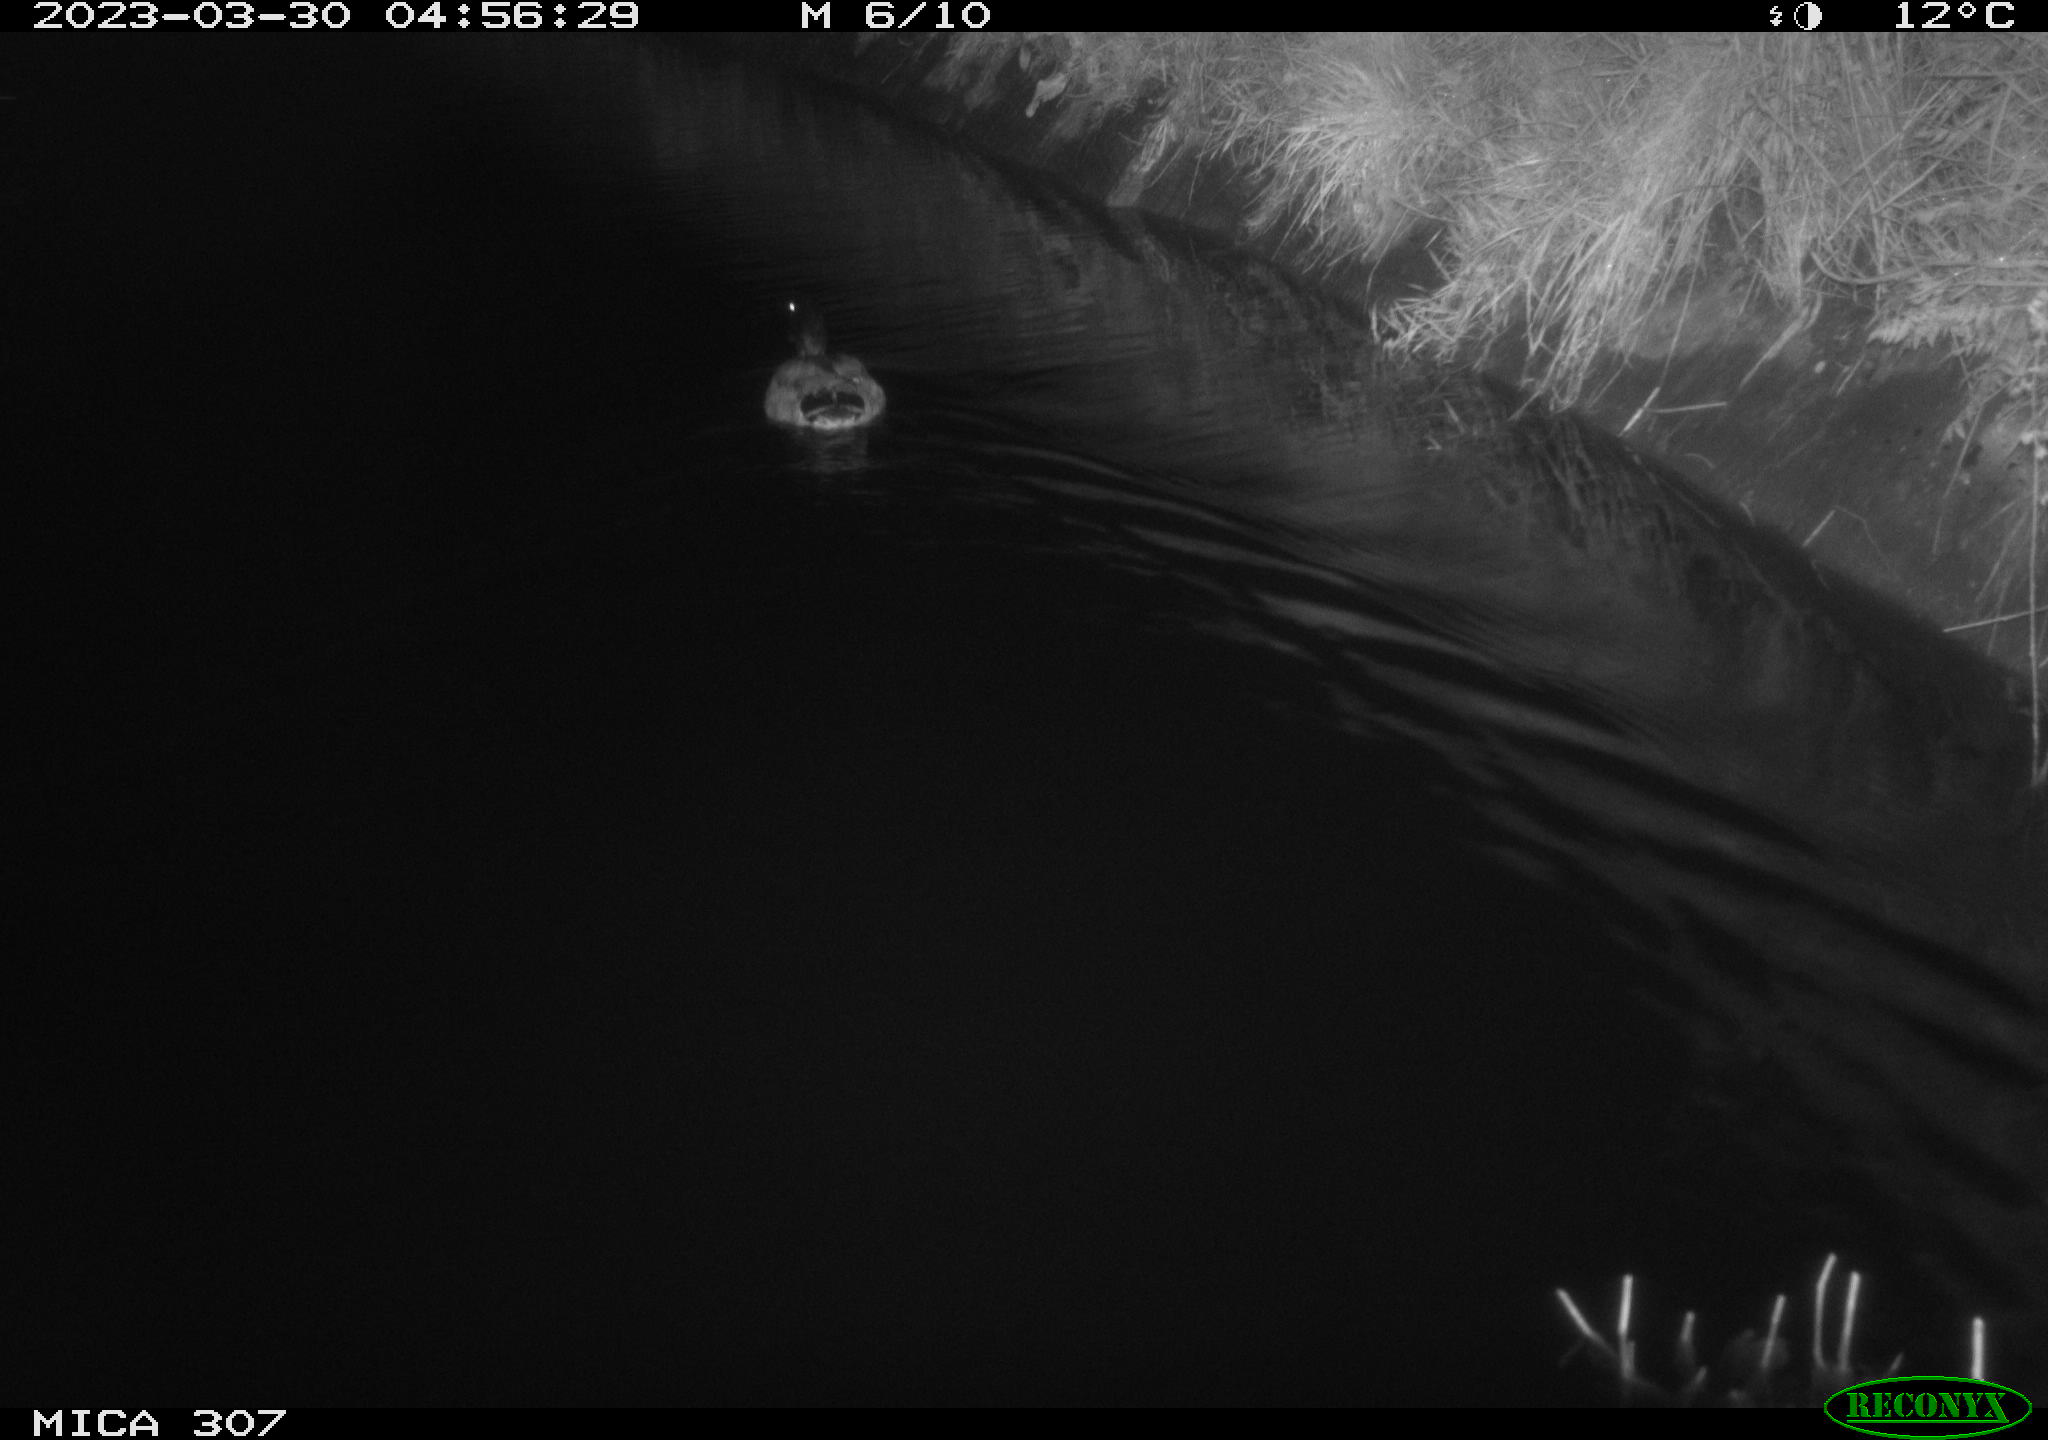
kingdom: Animalia
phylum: Chordata
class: Aves
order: Anseriformes
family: Anatidae
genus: Anas
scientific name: Anas
